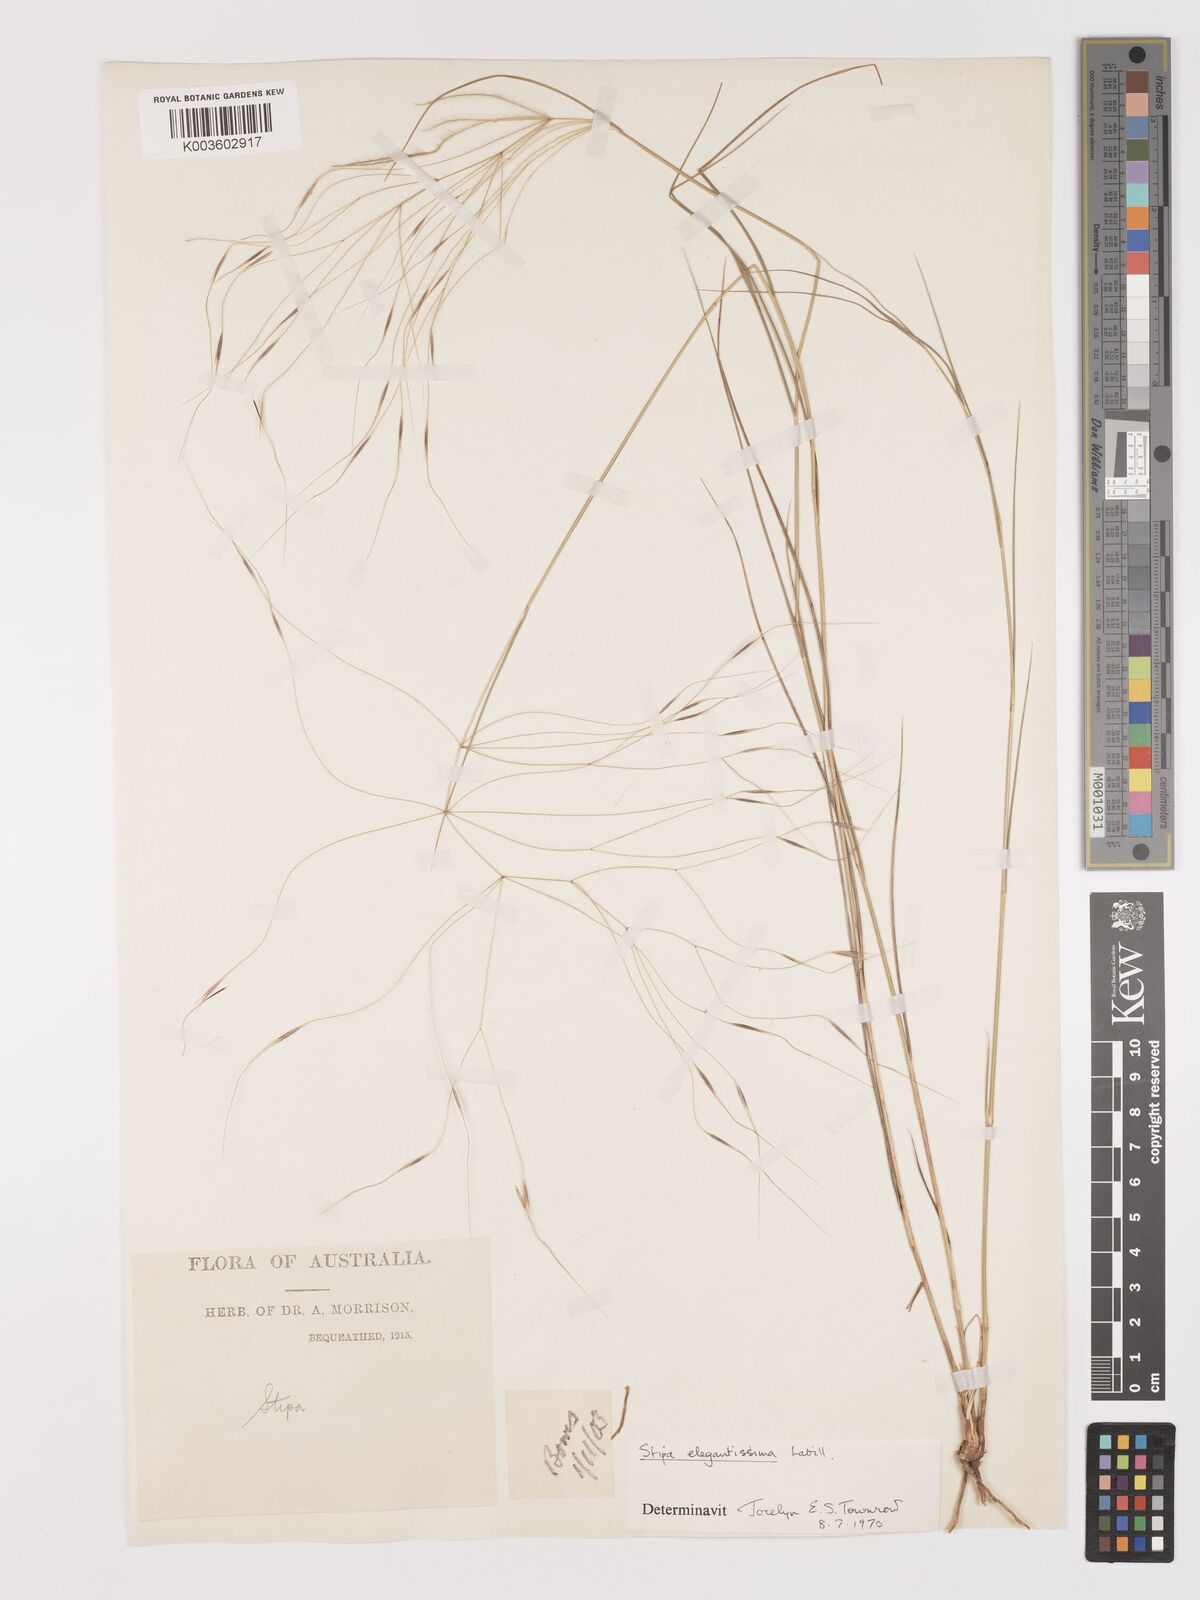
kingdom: Plantae
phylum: Tracheophyta
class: Liliopsida
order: Poales
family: Poaceae
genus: Austrostipa
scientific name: Austrostipa elegantissima
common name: Feather spear grass
